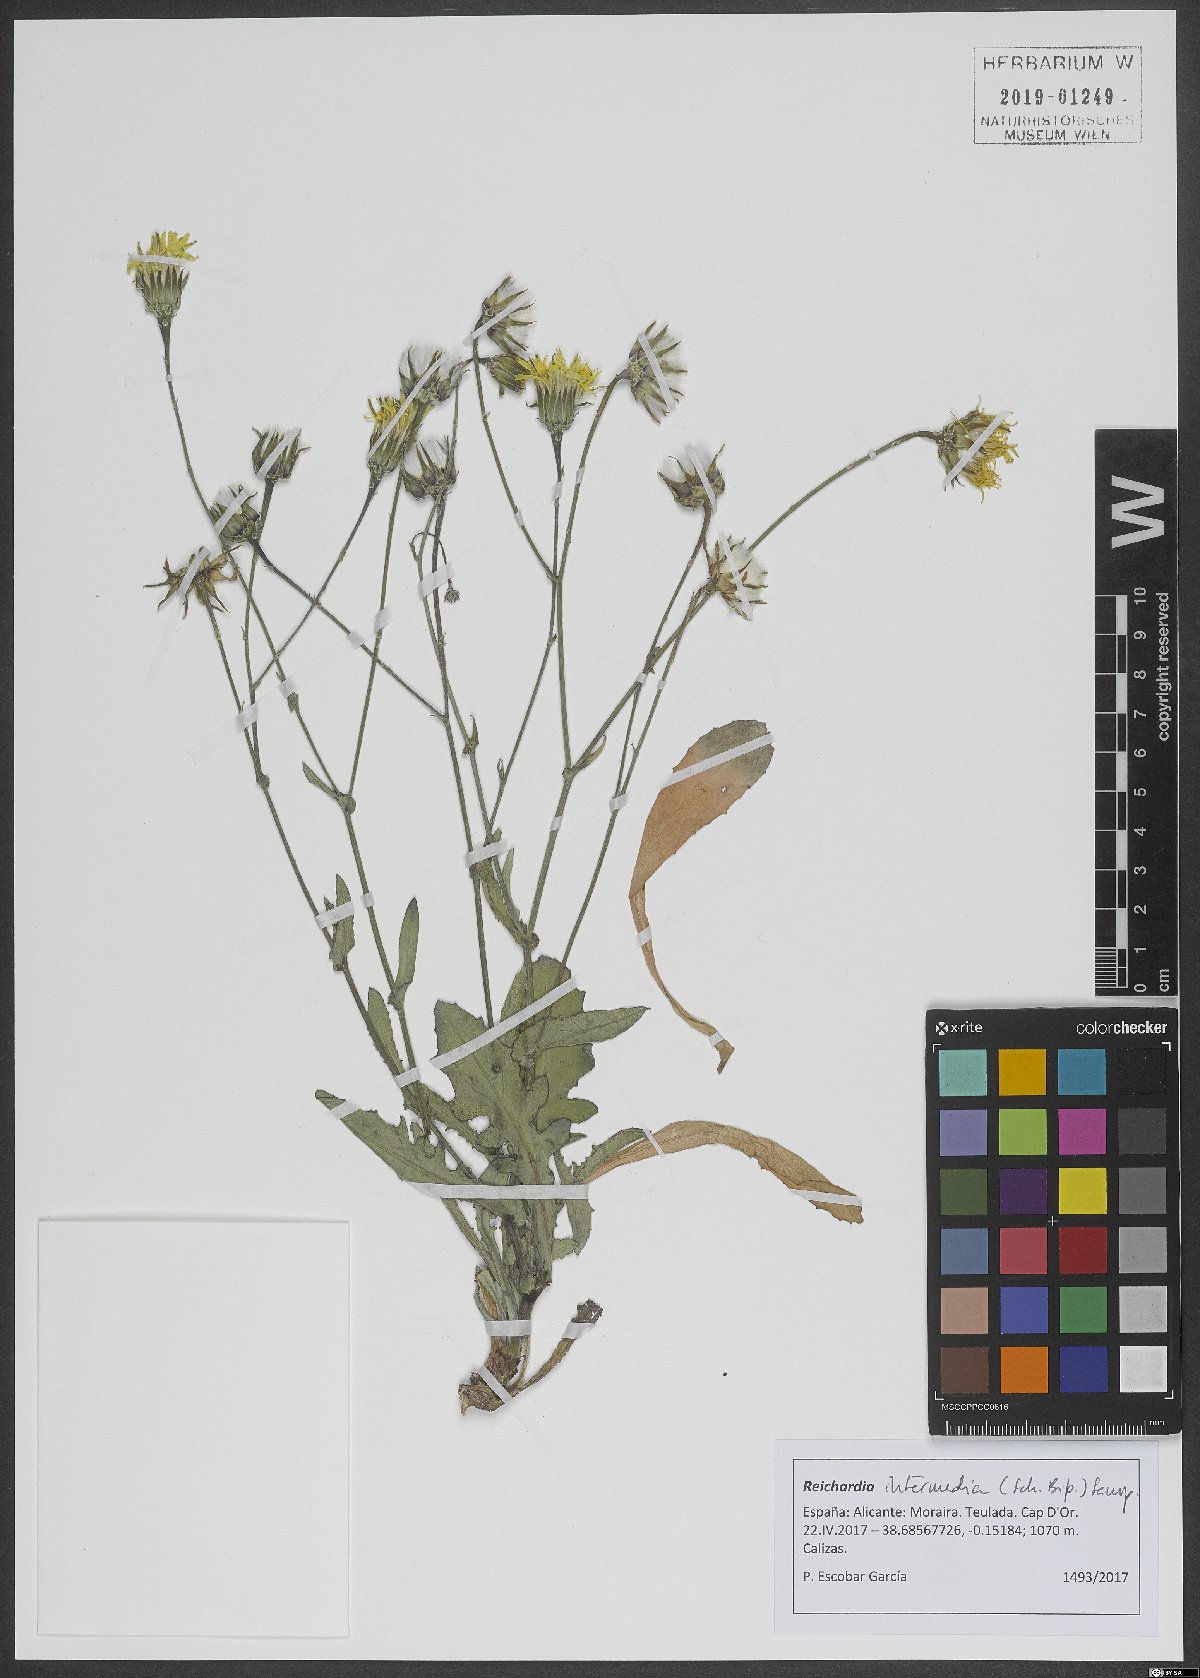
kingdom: Plantae
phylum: Tracheophyta
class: Magnoliopsida
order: Asterales
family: Asteraceae
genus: Reichardia
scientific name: Reichardia intermedia
